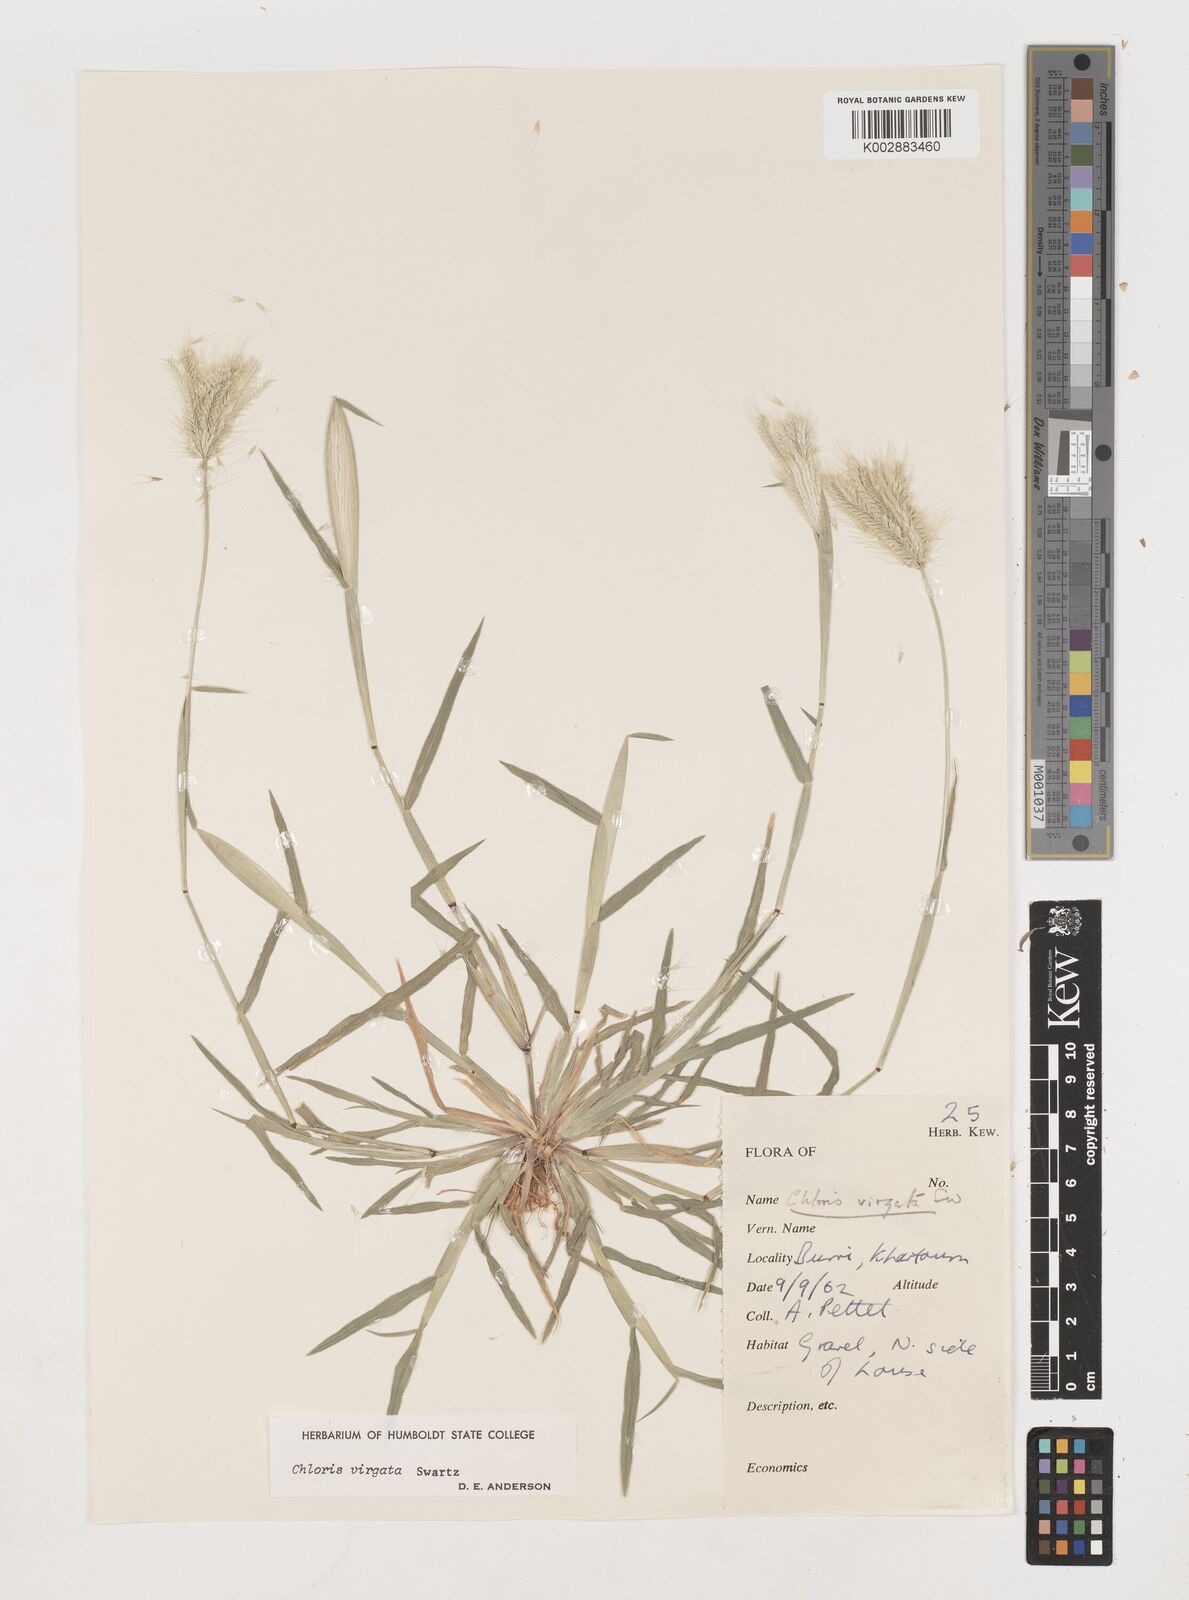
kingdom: Plantae
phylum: Tracheophyta
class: Liliopsida
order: Poales
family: Poaceae
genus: Chloris
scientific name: Chloris virgata
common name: Feathery rhodes-grass
